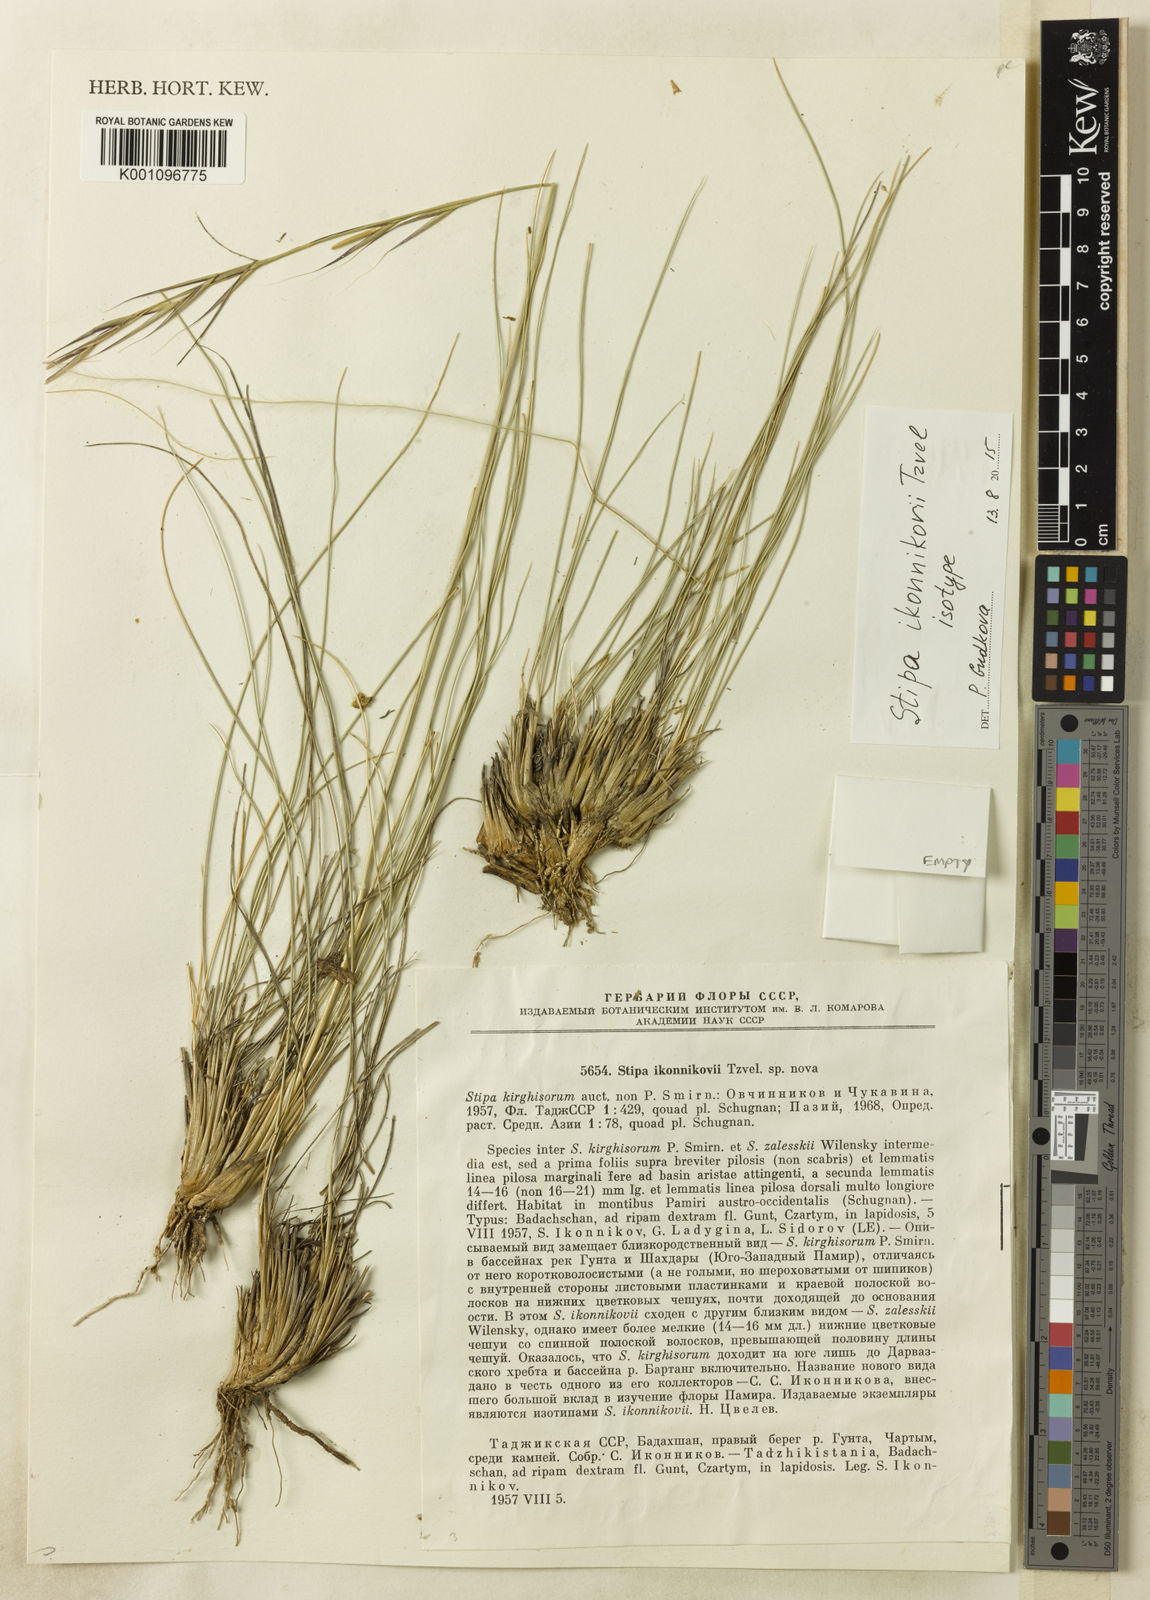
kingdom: Plantae
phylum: Tracheophyta
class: Liliopsida
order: Poales
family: Poaceae
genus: Stipa
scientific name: Stipa kirghisorum
